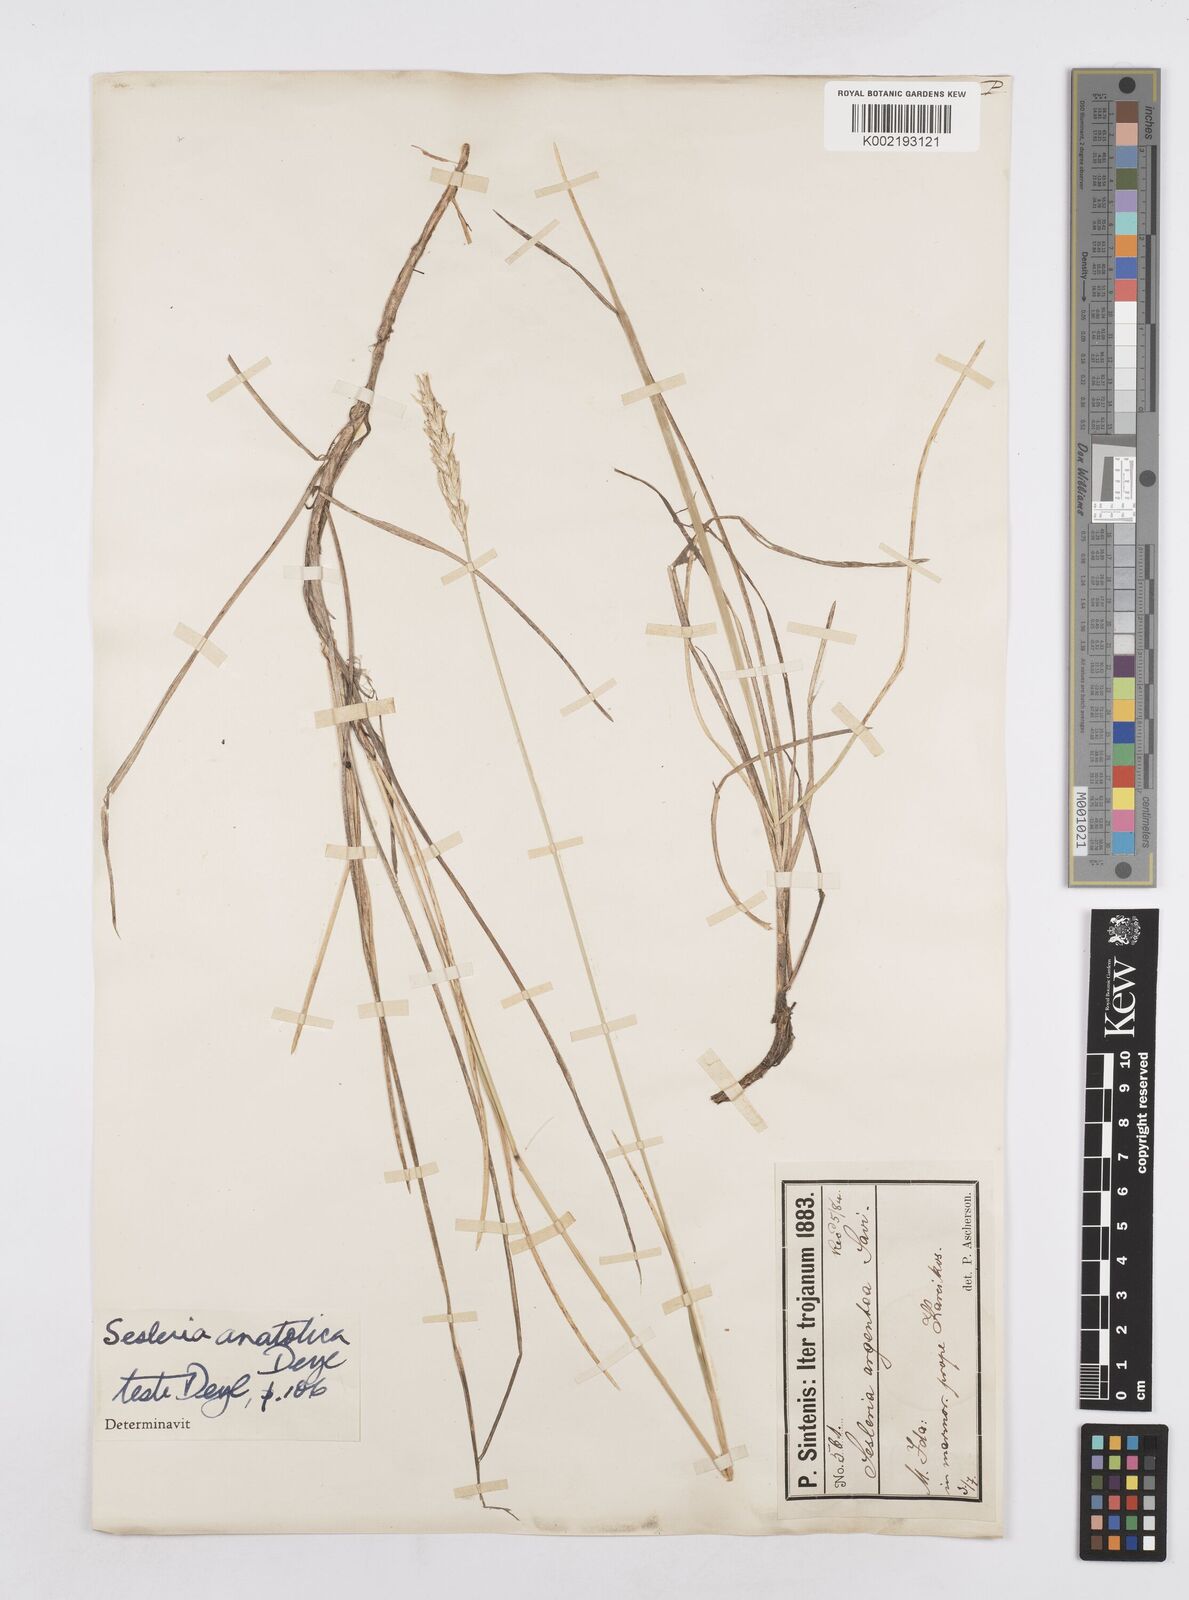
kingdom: Plantae
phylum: Tracheophyta
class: Liliopsida
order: Poales
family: Poaceae
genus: Sesleria
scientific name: Sesleria argentea
